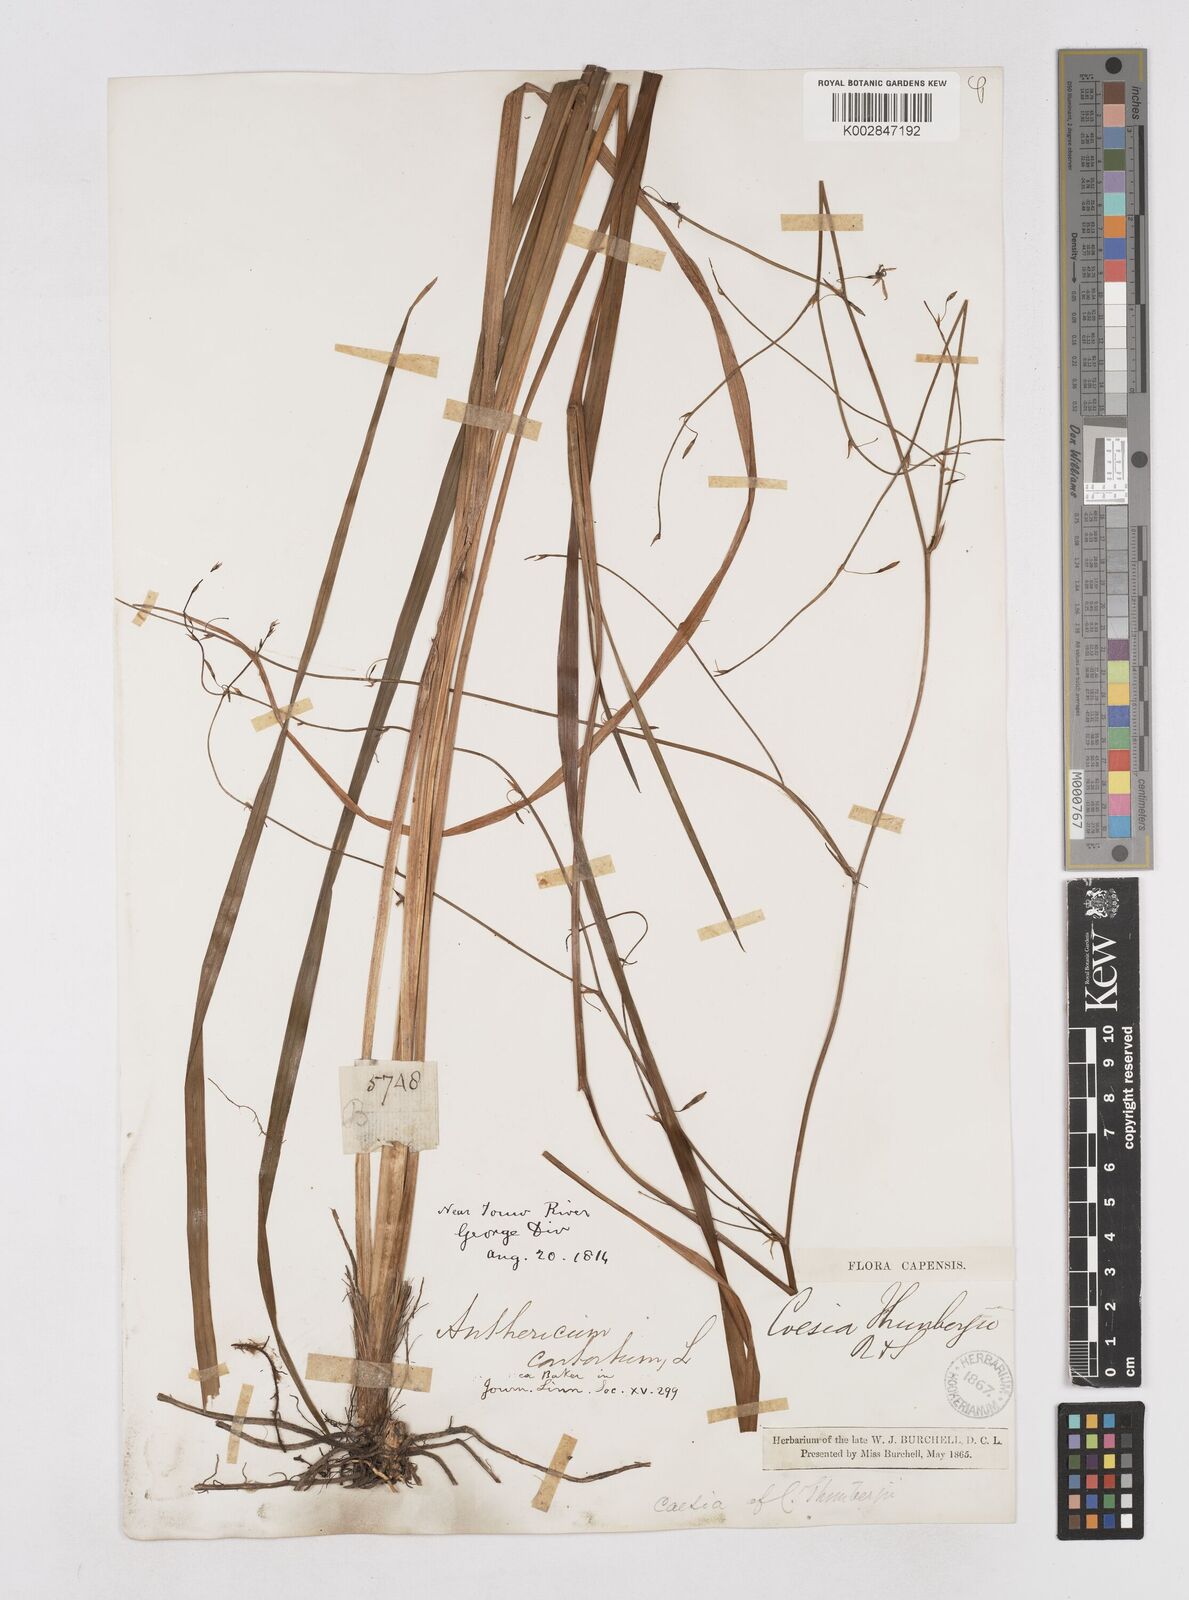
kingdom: Plantae
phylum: Tracheophyta
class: Liliopsida
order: Asparagales
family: Asphodelaceae
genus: Caesia
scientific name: Caesia contorta
